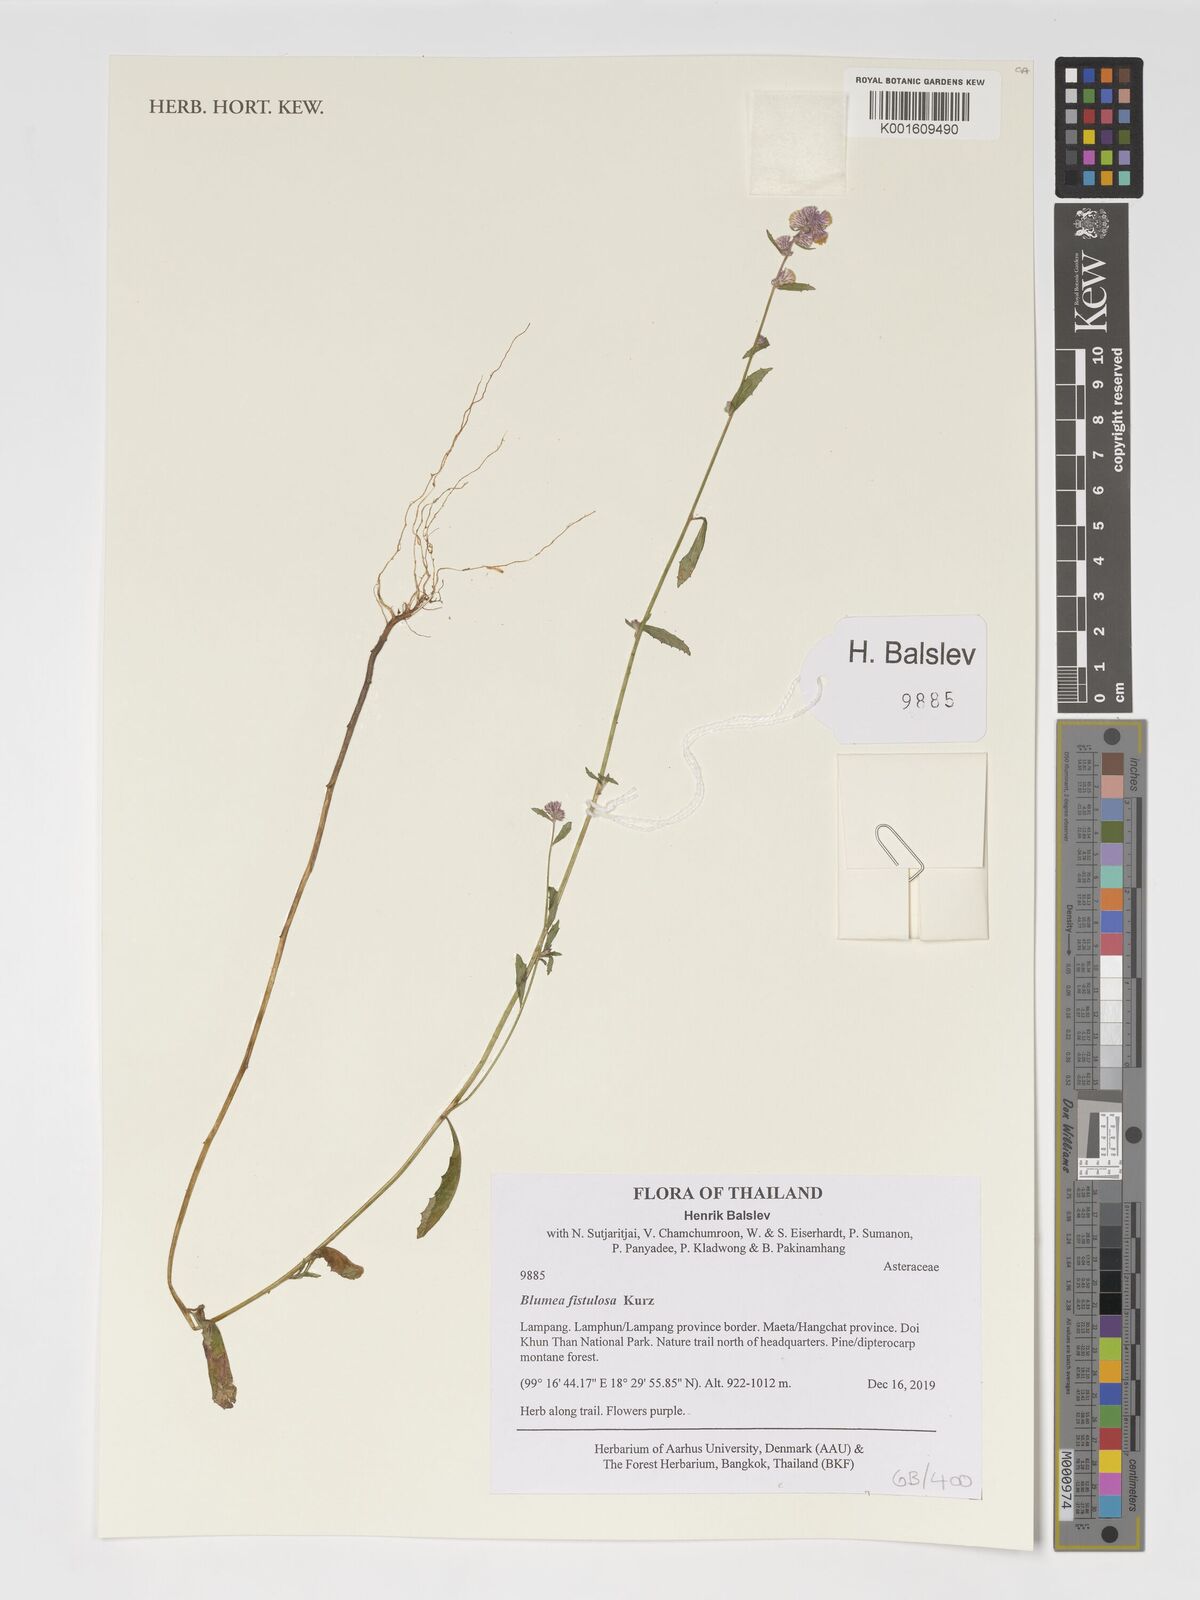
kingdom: Plantae
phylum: Tracheophyta
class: Magnoliopsida
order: Asterales
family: Asteraceae
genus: Blumea
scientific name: Blumea fistulosa
